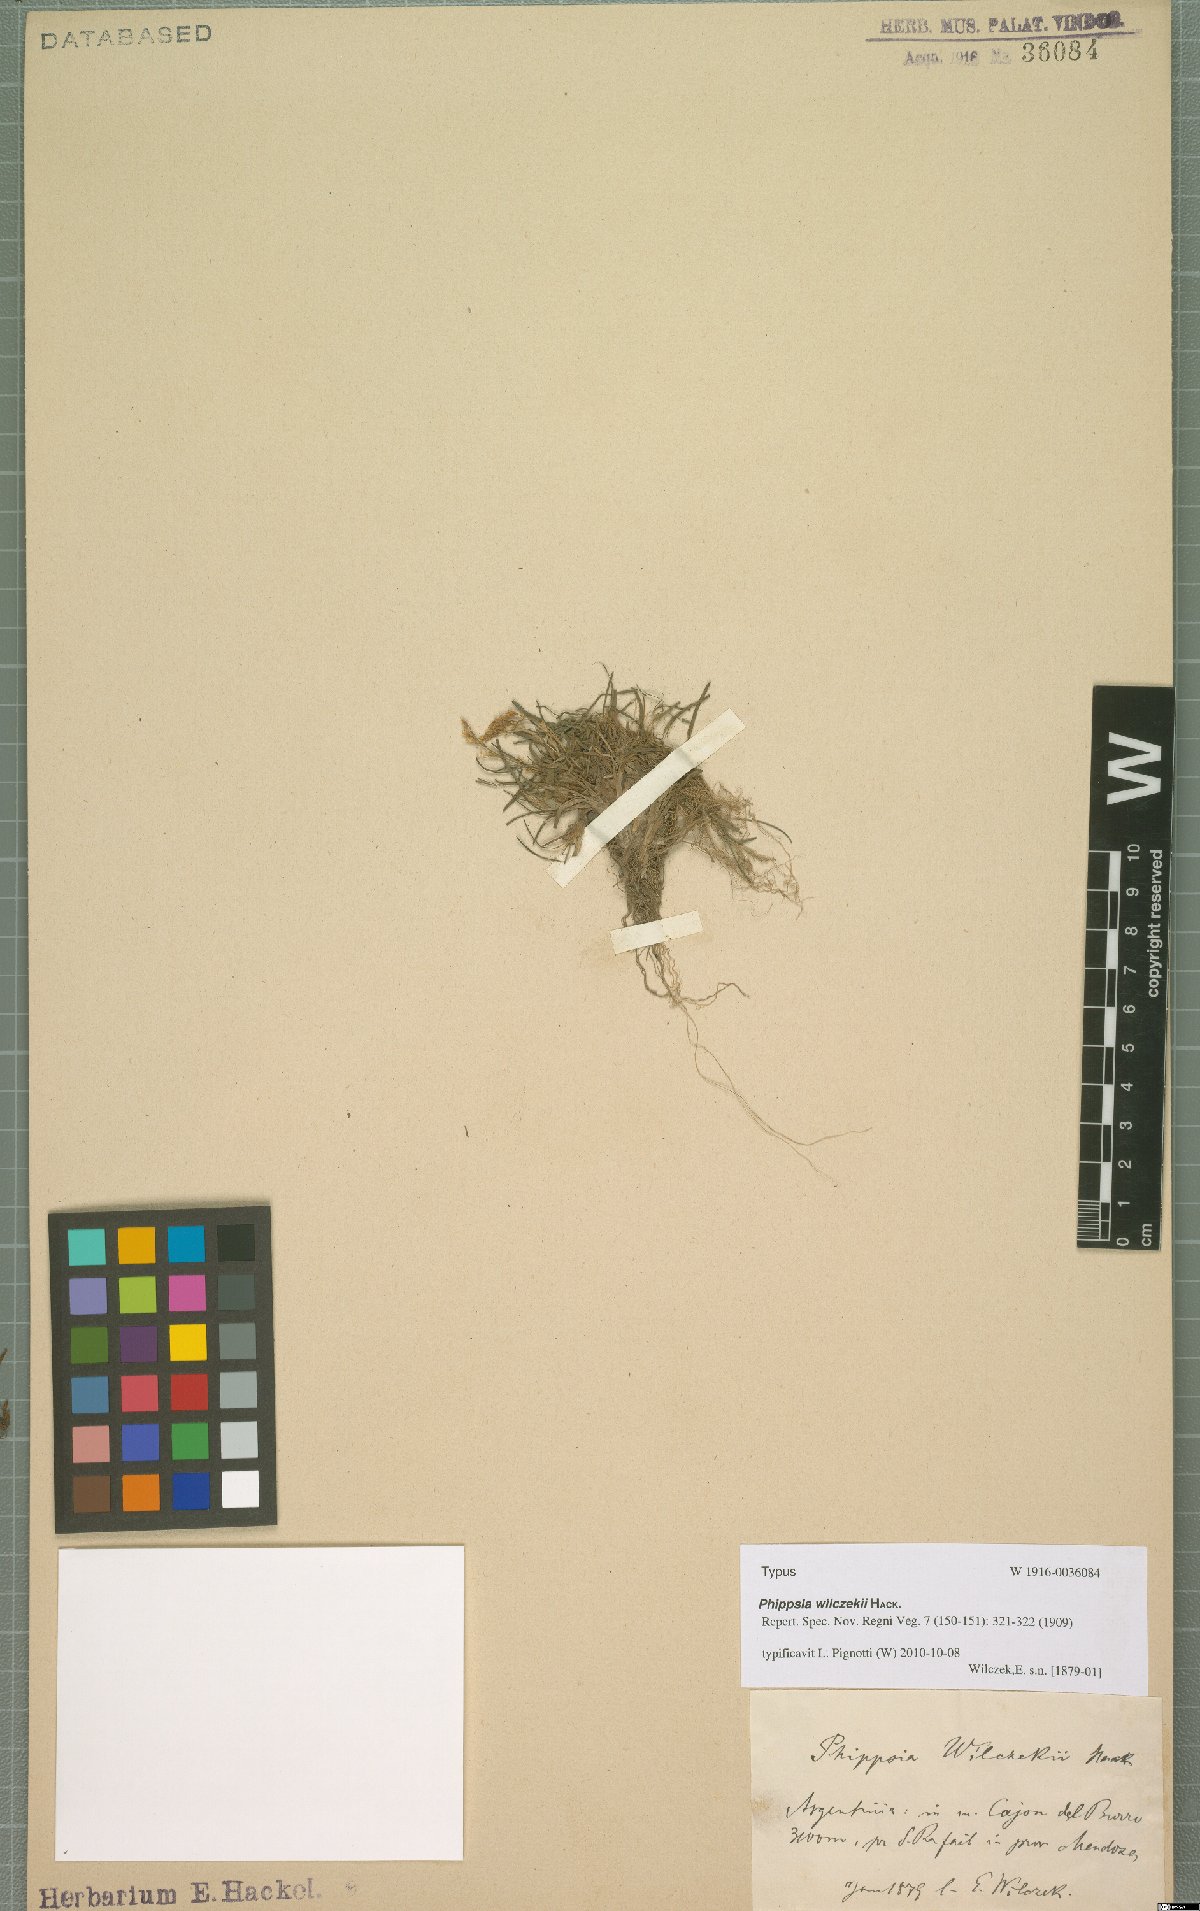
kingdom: Plantae
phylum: Tracheophyta
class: Liliopsida
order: Poales
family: Poaceae
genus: Phippsia
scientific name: Phippsia wilczekii
